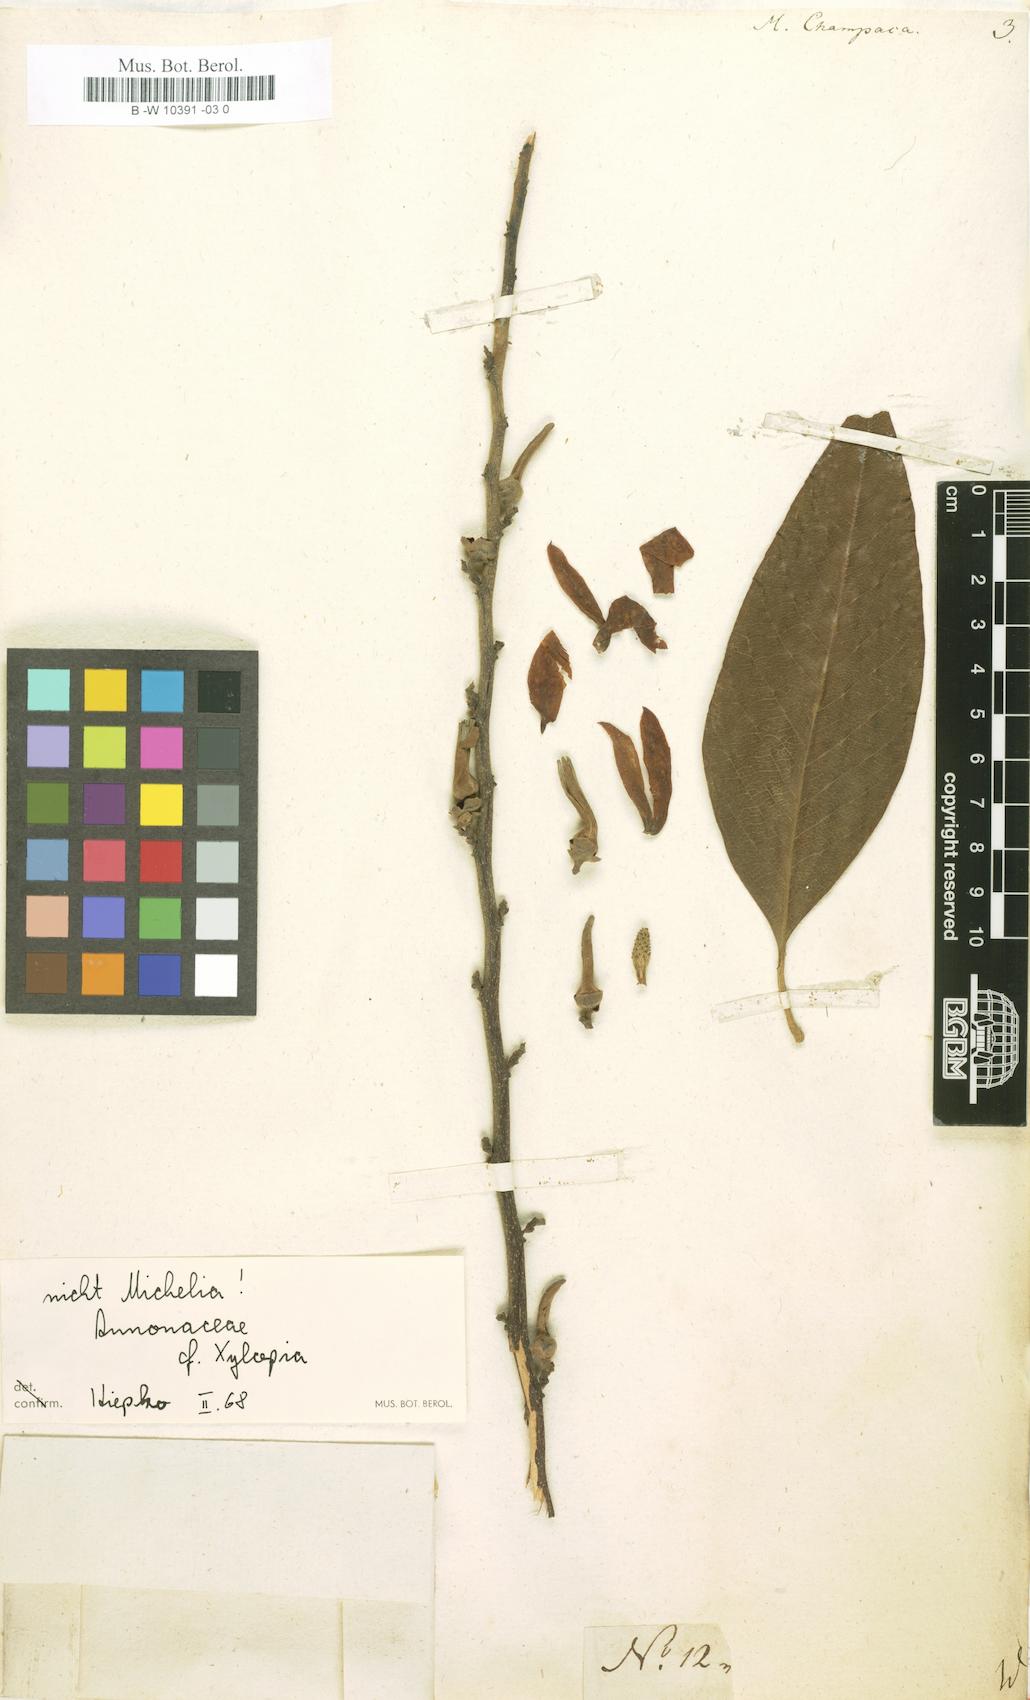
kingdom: Plantae
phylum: Tracheophyta
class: Magnoliopsida
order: Magnoliales
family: Magnoliaceae
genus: Magnolia
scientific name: Magnolia champaca
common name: Champak
